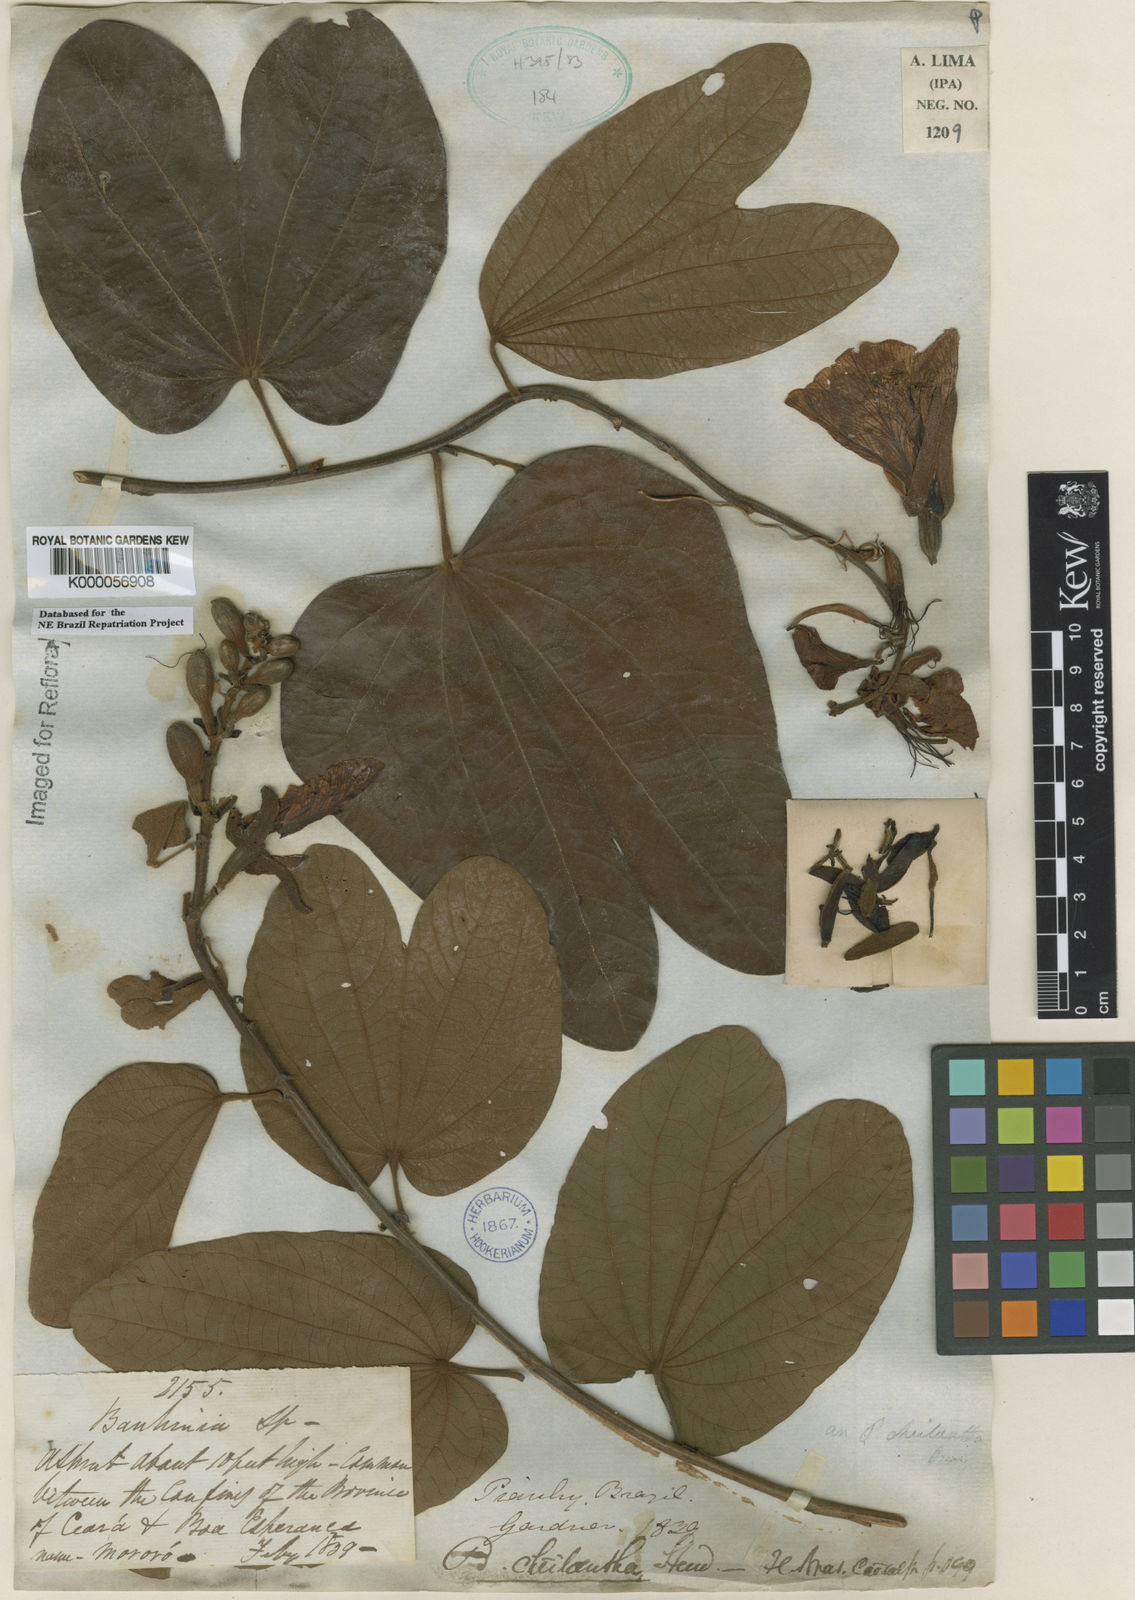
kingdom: Plantae
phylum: Tracheophyta
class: Magnoliopsida
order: Fabales
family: Fabaceae
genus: Bauhinia
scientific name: Bauhinia cheilantha
